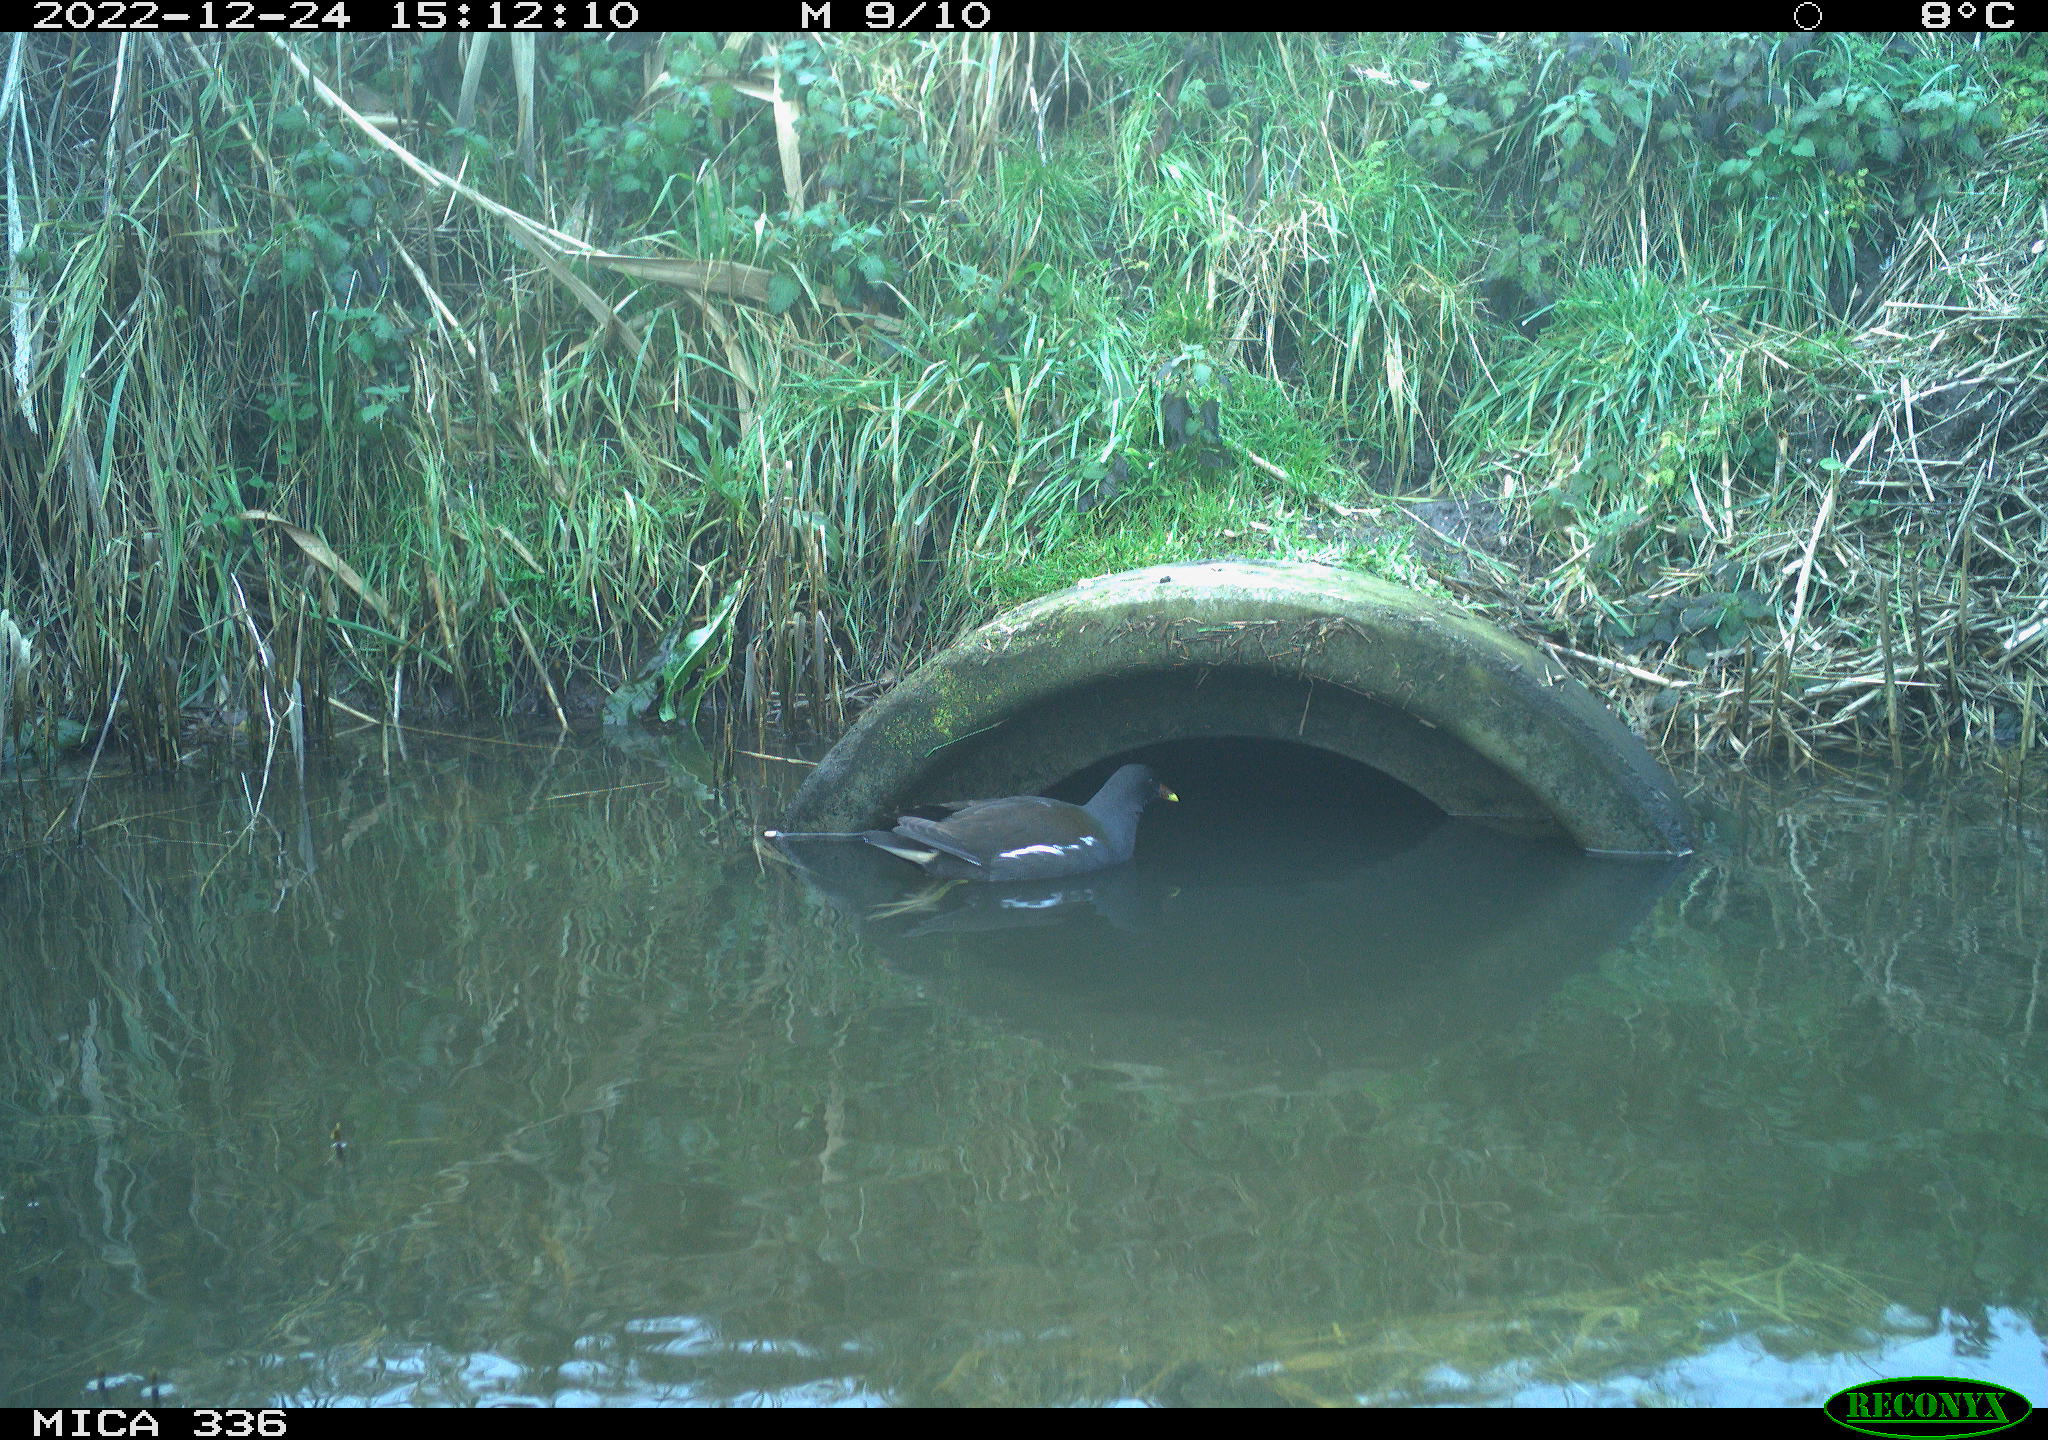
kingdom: Animalia
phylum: Chordata
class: Aves
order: Gruiformes
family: Rallidae
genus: Gallinula
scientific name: Gallinula chloropus
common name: Common moorhen
